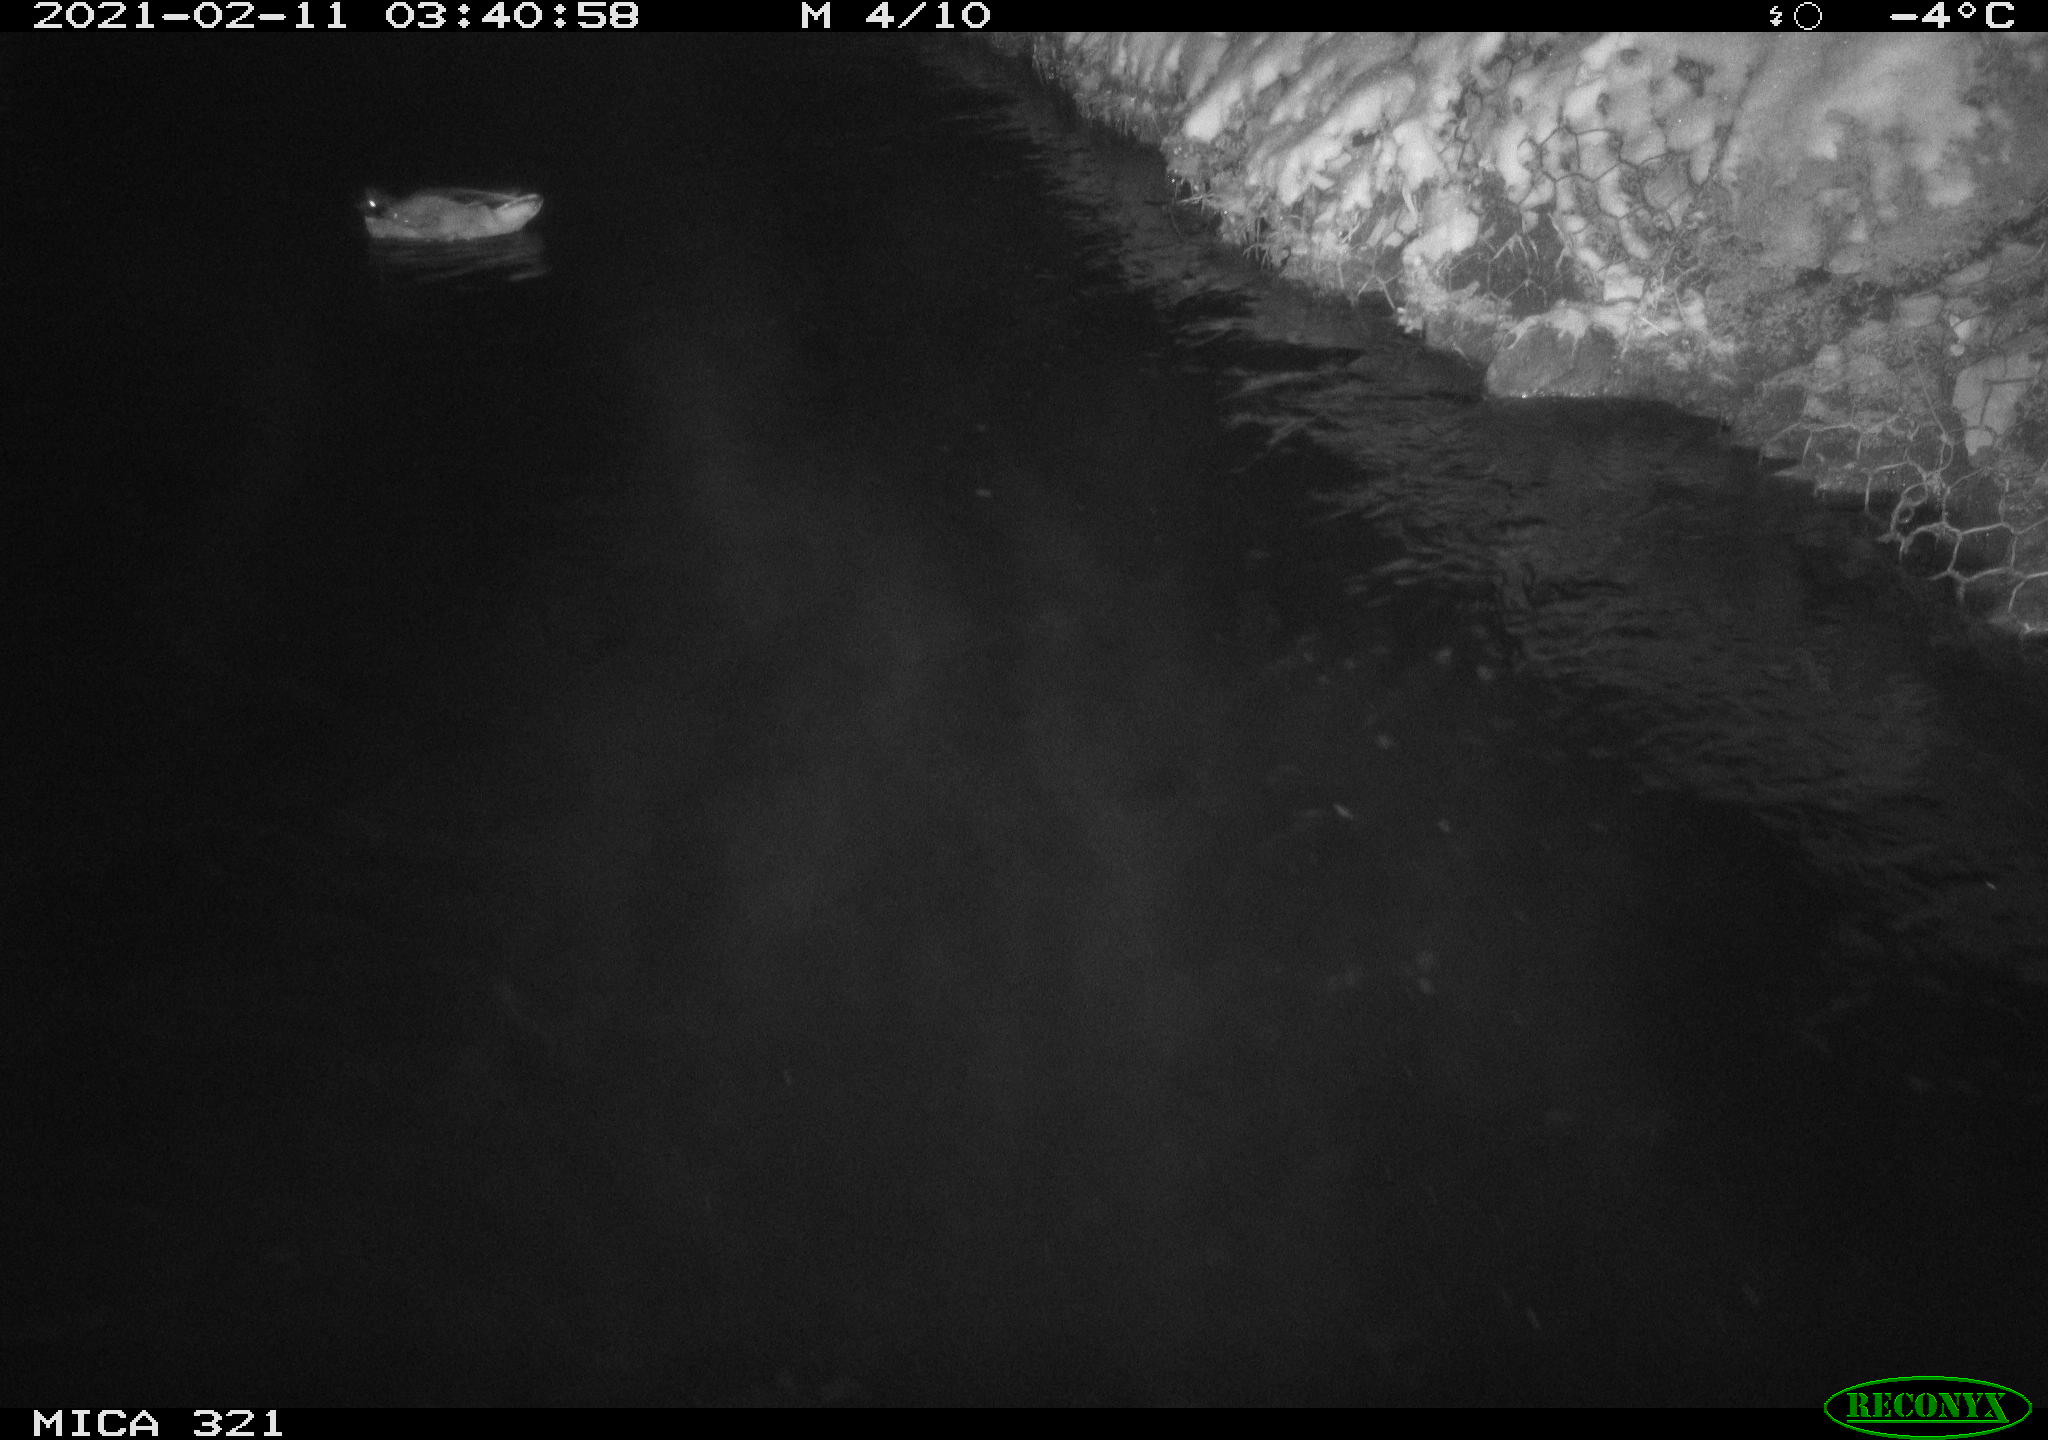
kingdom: Animalia
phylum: Chordata
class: Aves
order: Anseriformes
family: Anatidae
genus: Anas
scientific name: Anas platyrhynchos
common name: Mallard
